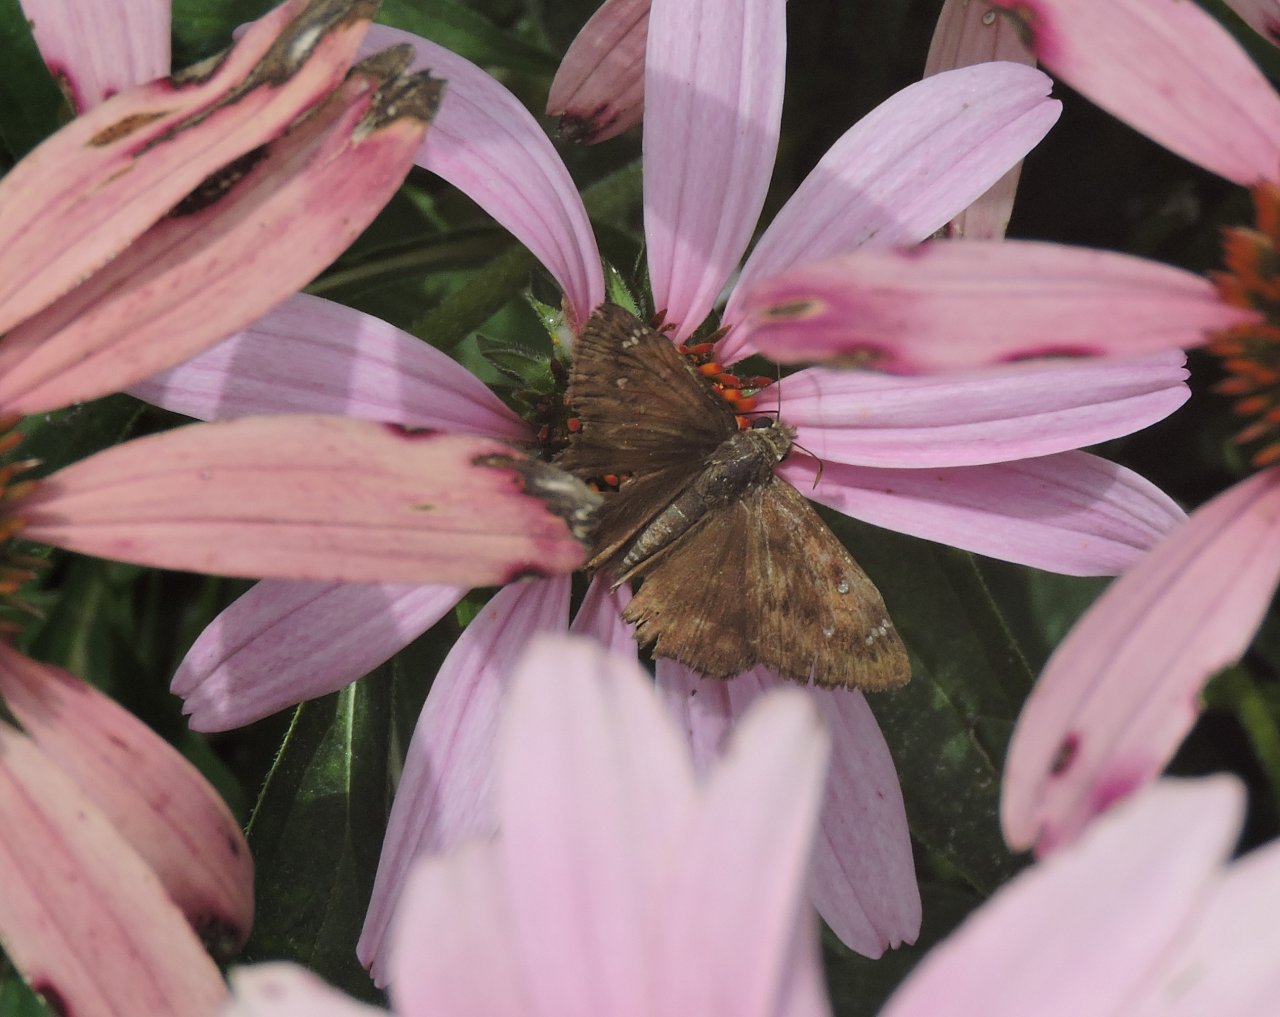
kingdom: Animalia
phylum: Arthropoda
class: Insecta
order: Lepidoptera
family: Hesperiidae
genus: Gesta
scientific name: Gesta
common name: Horace's Duskywing
